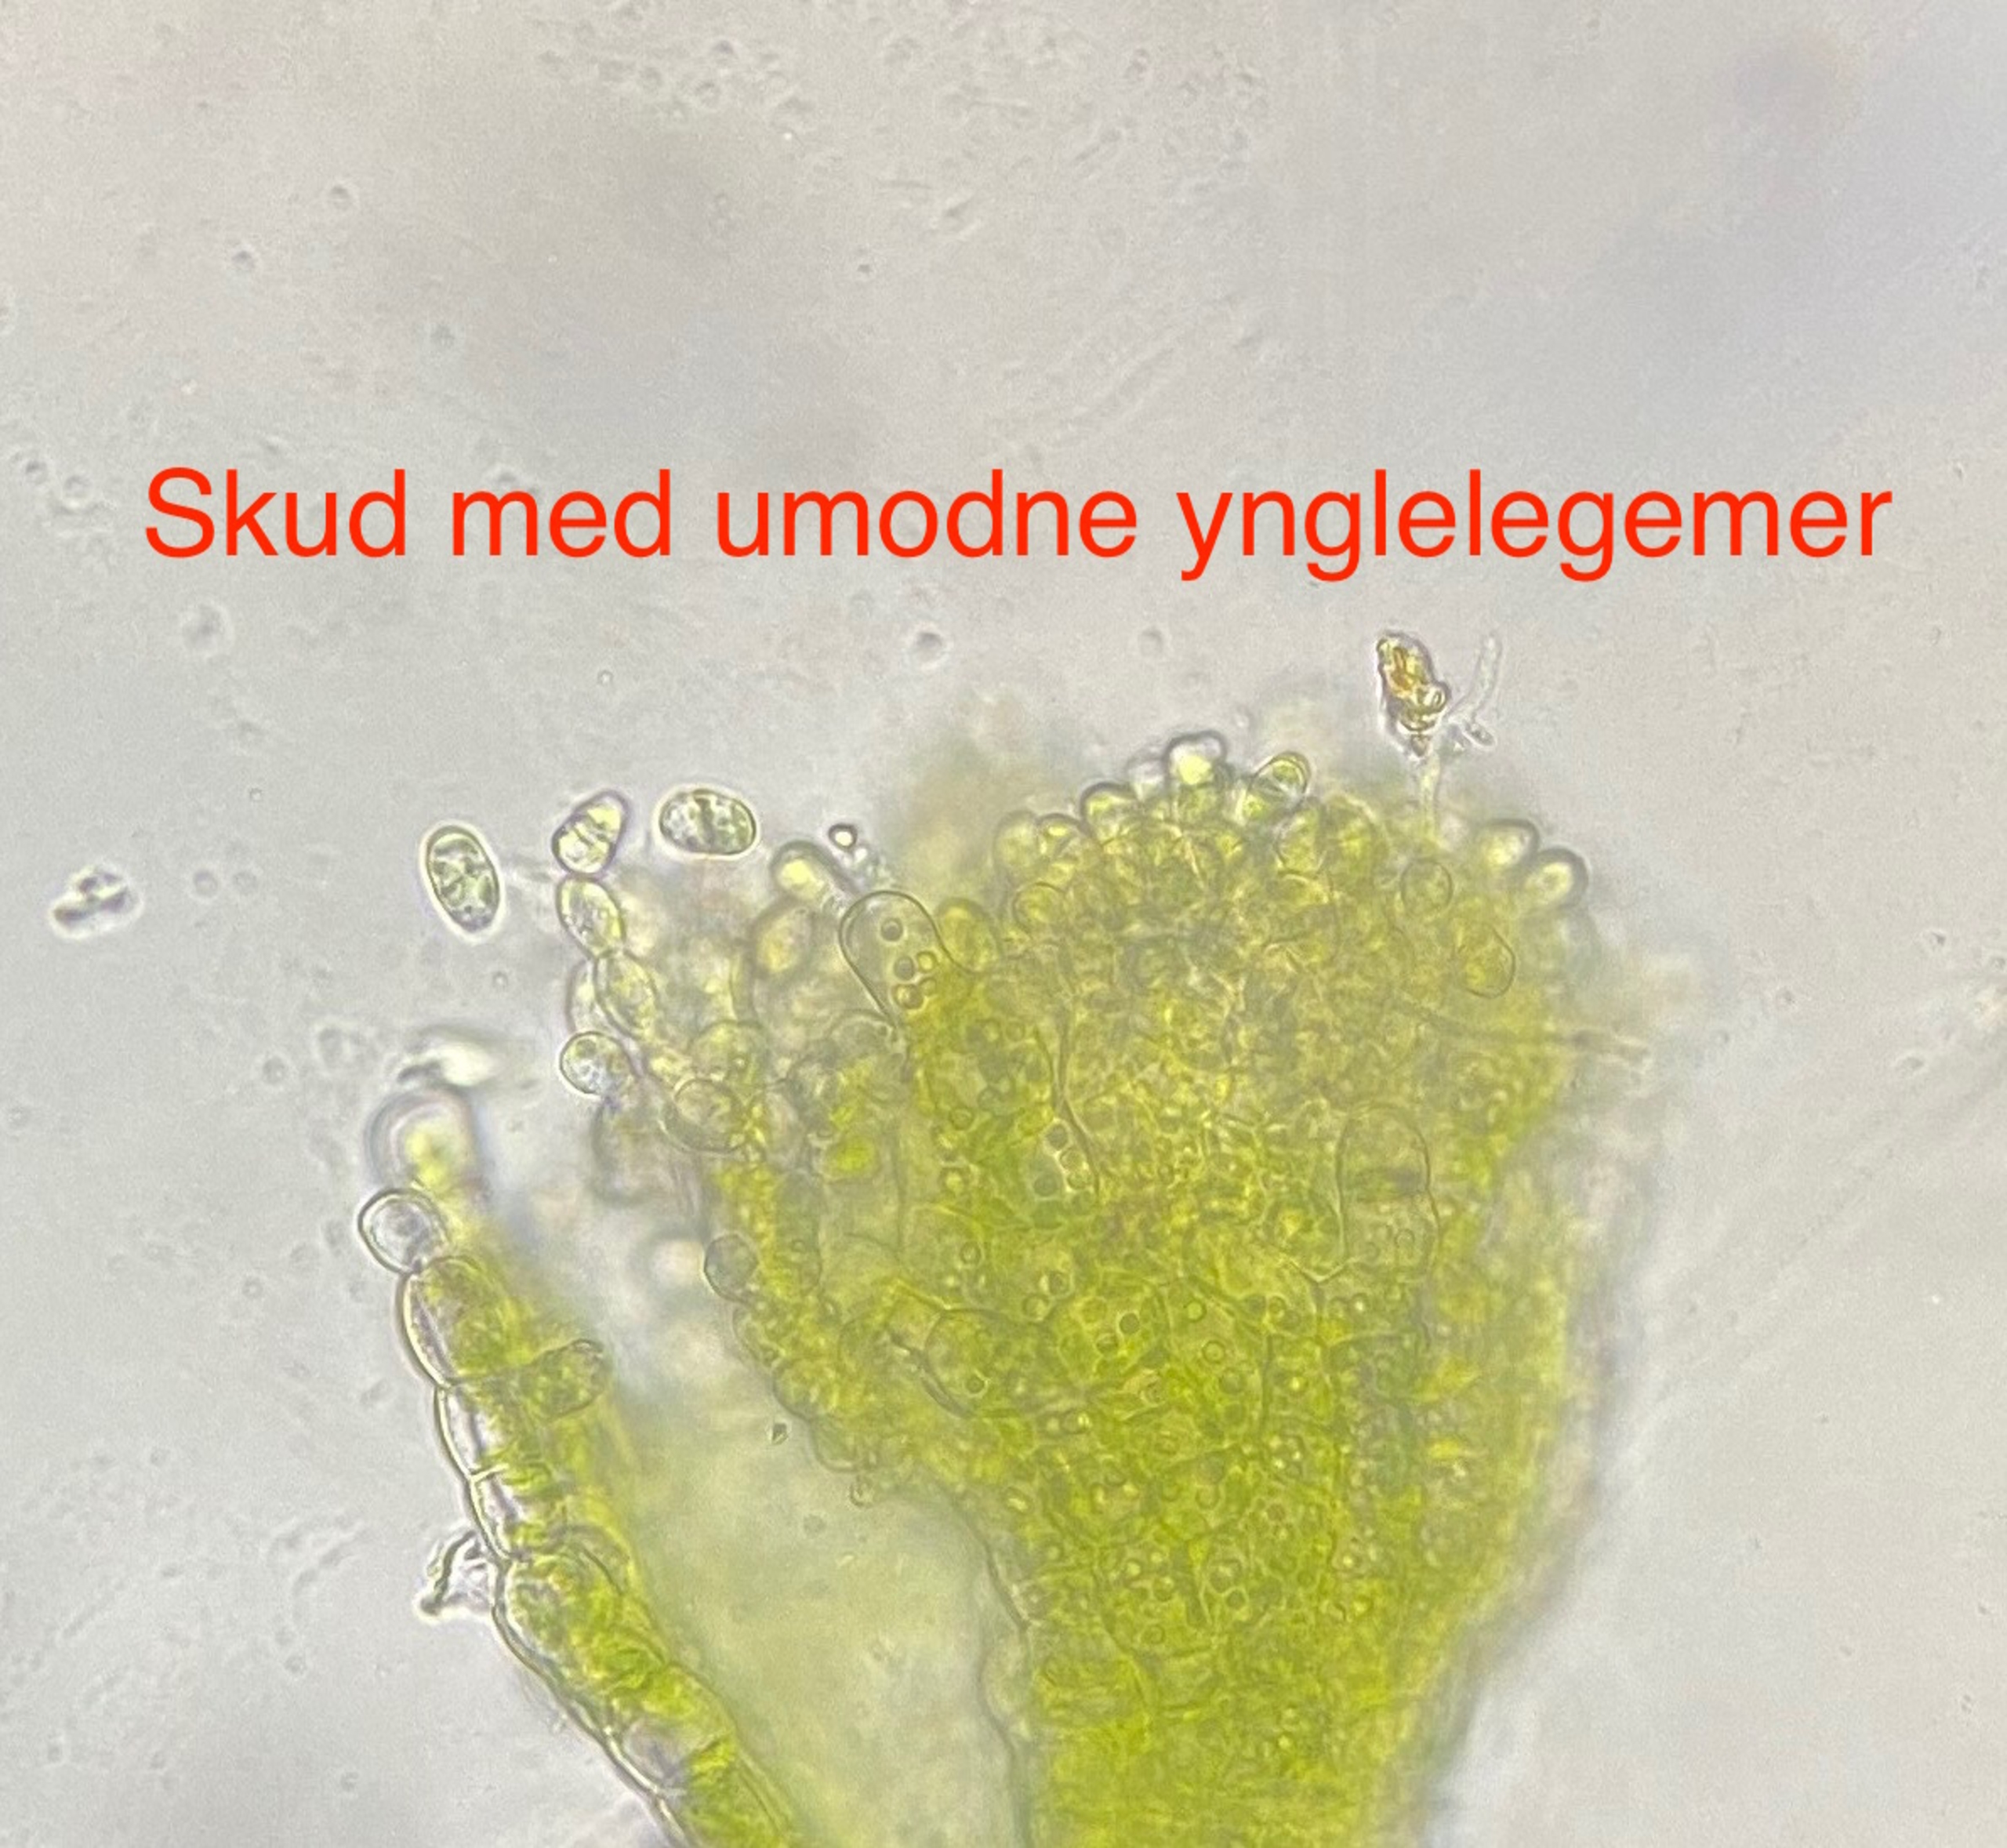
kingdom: Plantae
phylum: Marchantiophyta
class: Jungermanniopsida
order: Jungermanniales
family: Cephaloziellaceae
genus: Cephaloziella
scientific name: Cephaloziella divaricata
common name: Mørk dværgtråd
